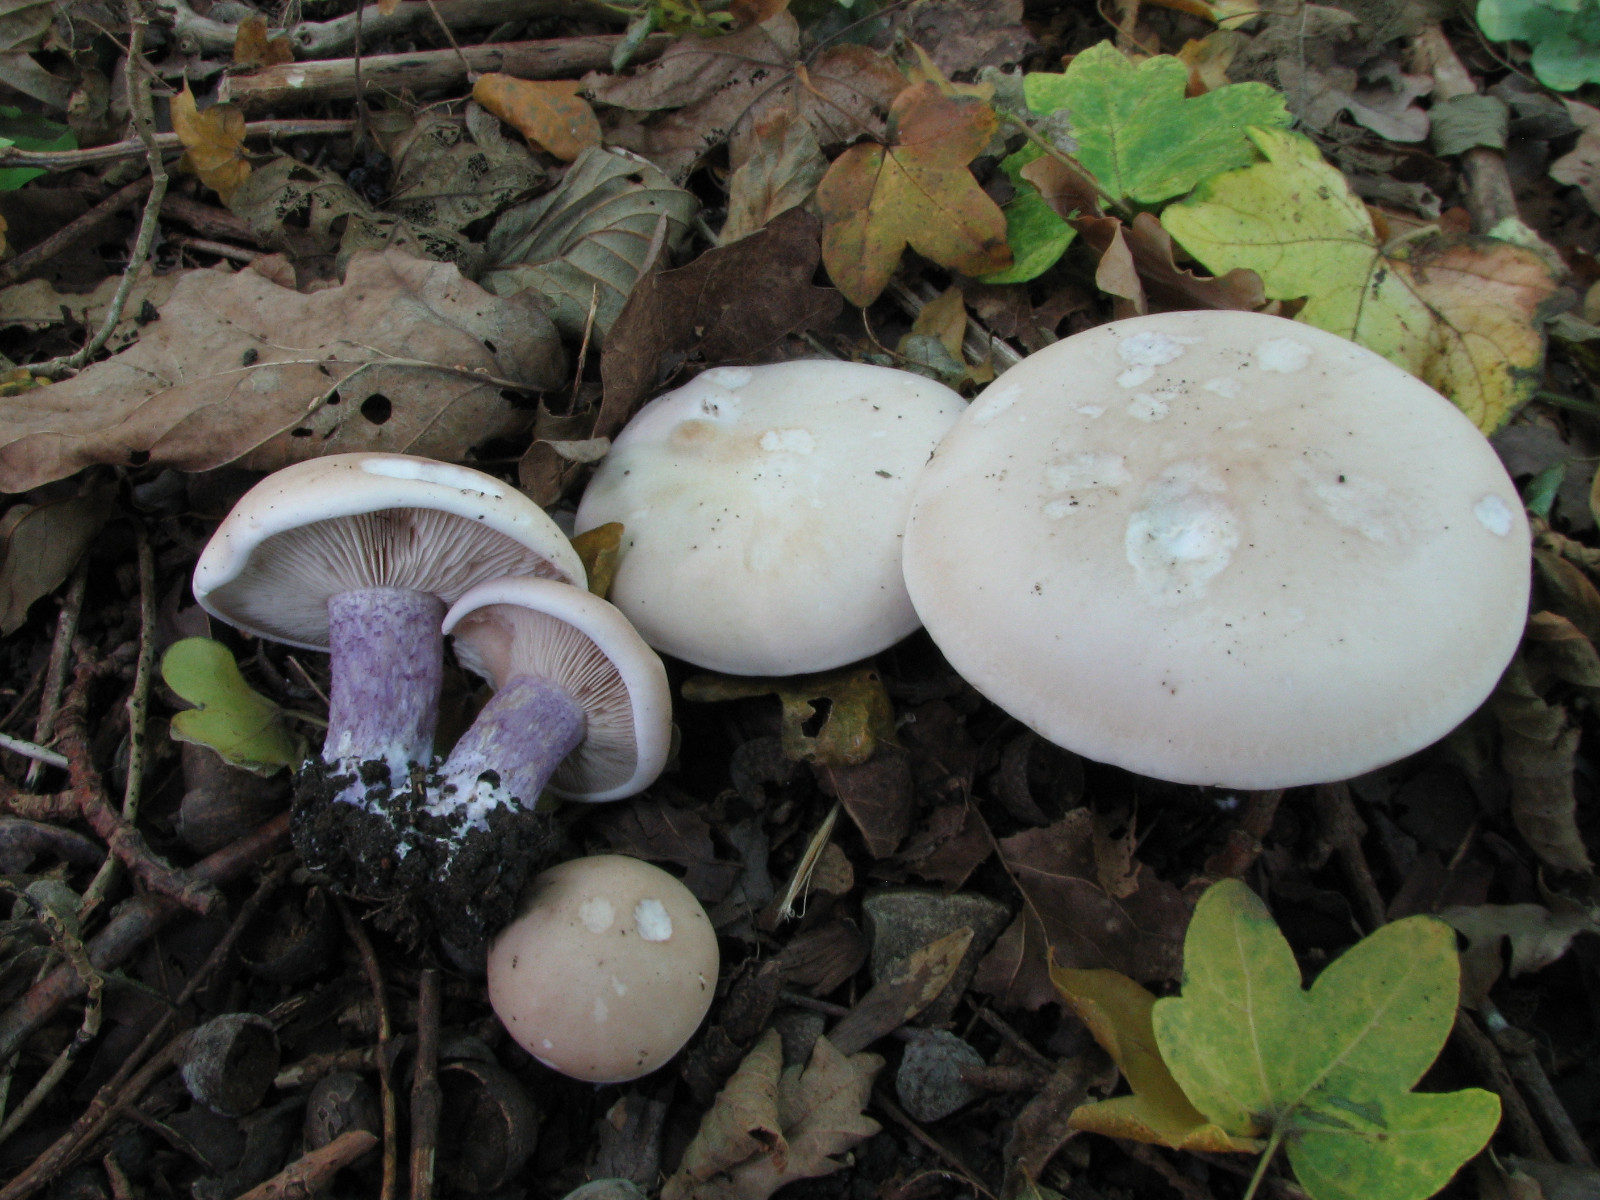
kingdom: Fungi
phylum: Basidiomycota
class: Agaricomycetes
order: Agaricales
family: Tricholomataceae
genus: Lepista
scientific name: Lepista personata
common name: bleg hekseringshat
